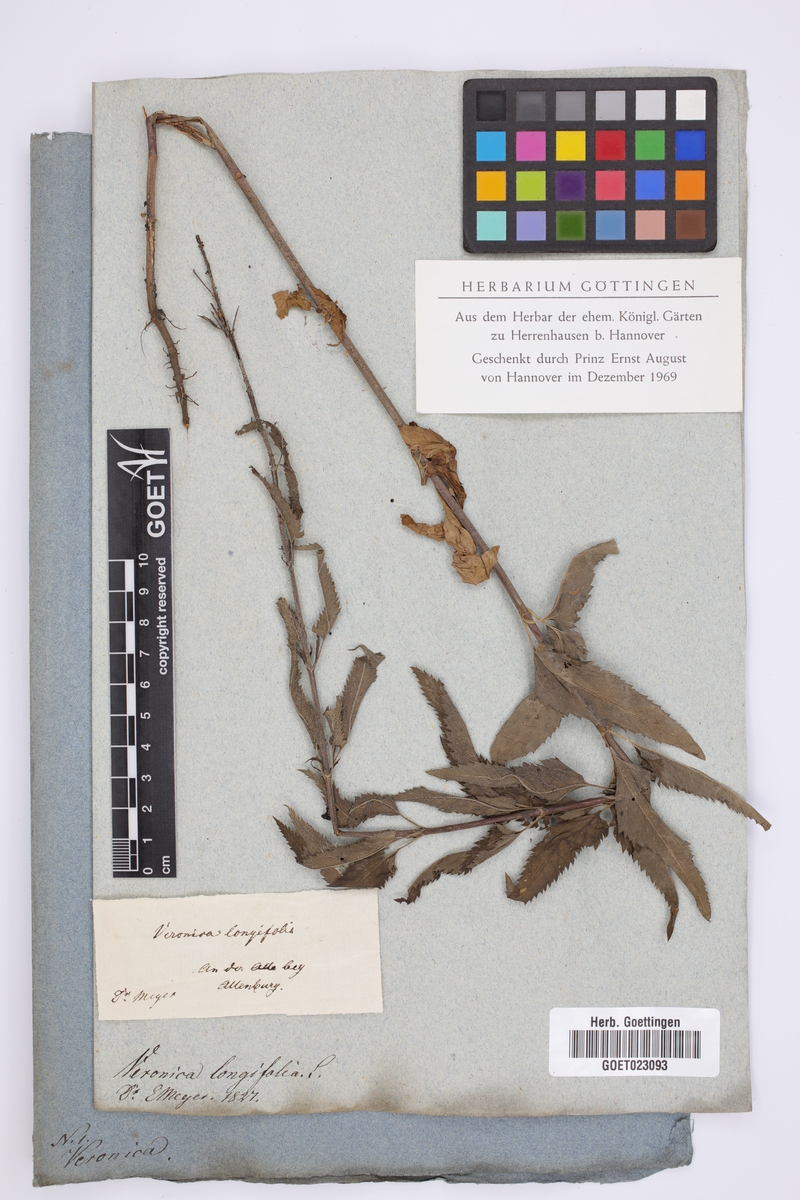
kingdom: Plantae
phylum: Tracheophyta
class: Magnoliopsida
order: Lamiales
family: Plantaginaceae
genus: Veronica
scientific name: Veronica longifolia
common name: Garden speedwell
